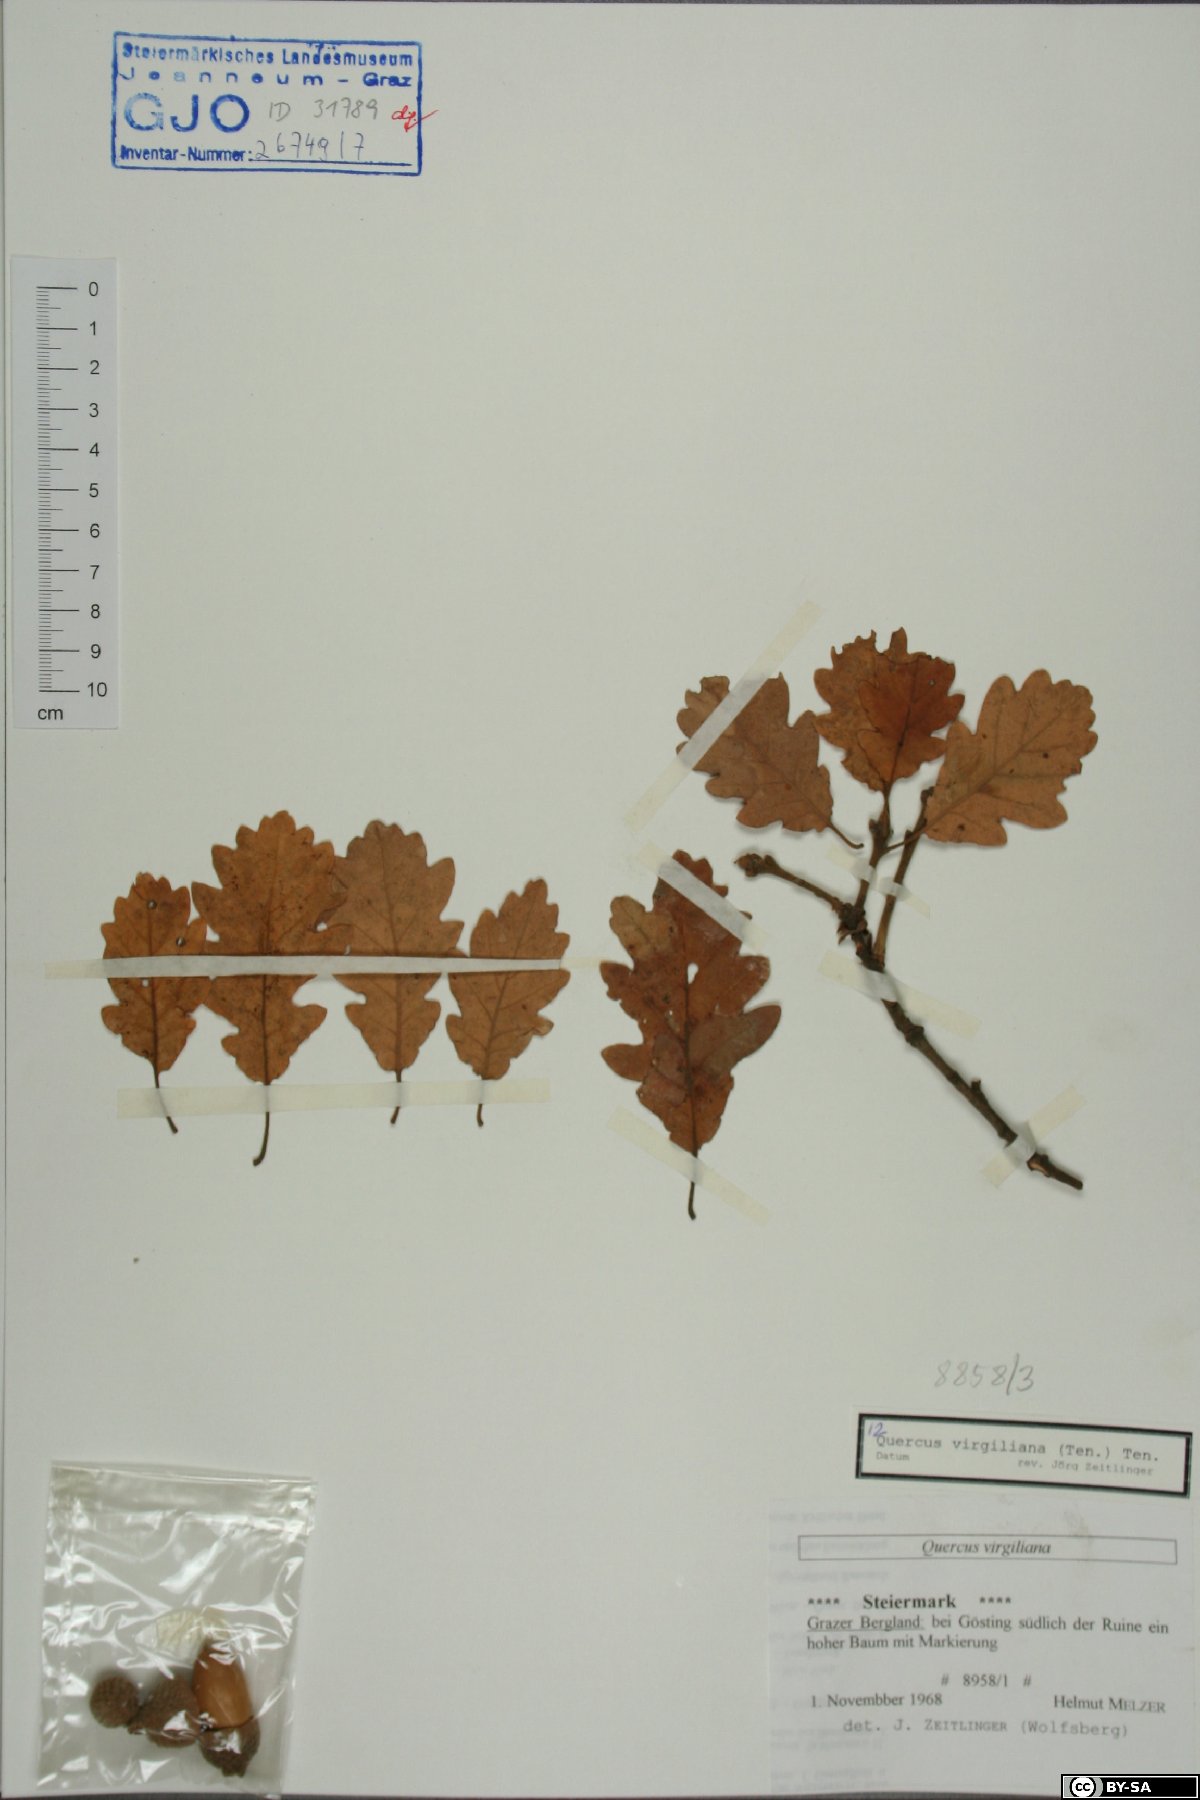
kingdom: Plantae
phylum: Tracheophyta
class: Magnoliopsida
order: Fagales
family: Fagaceae
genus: Quercus
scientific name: Quercus pubescens
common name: Downy oak
